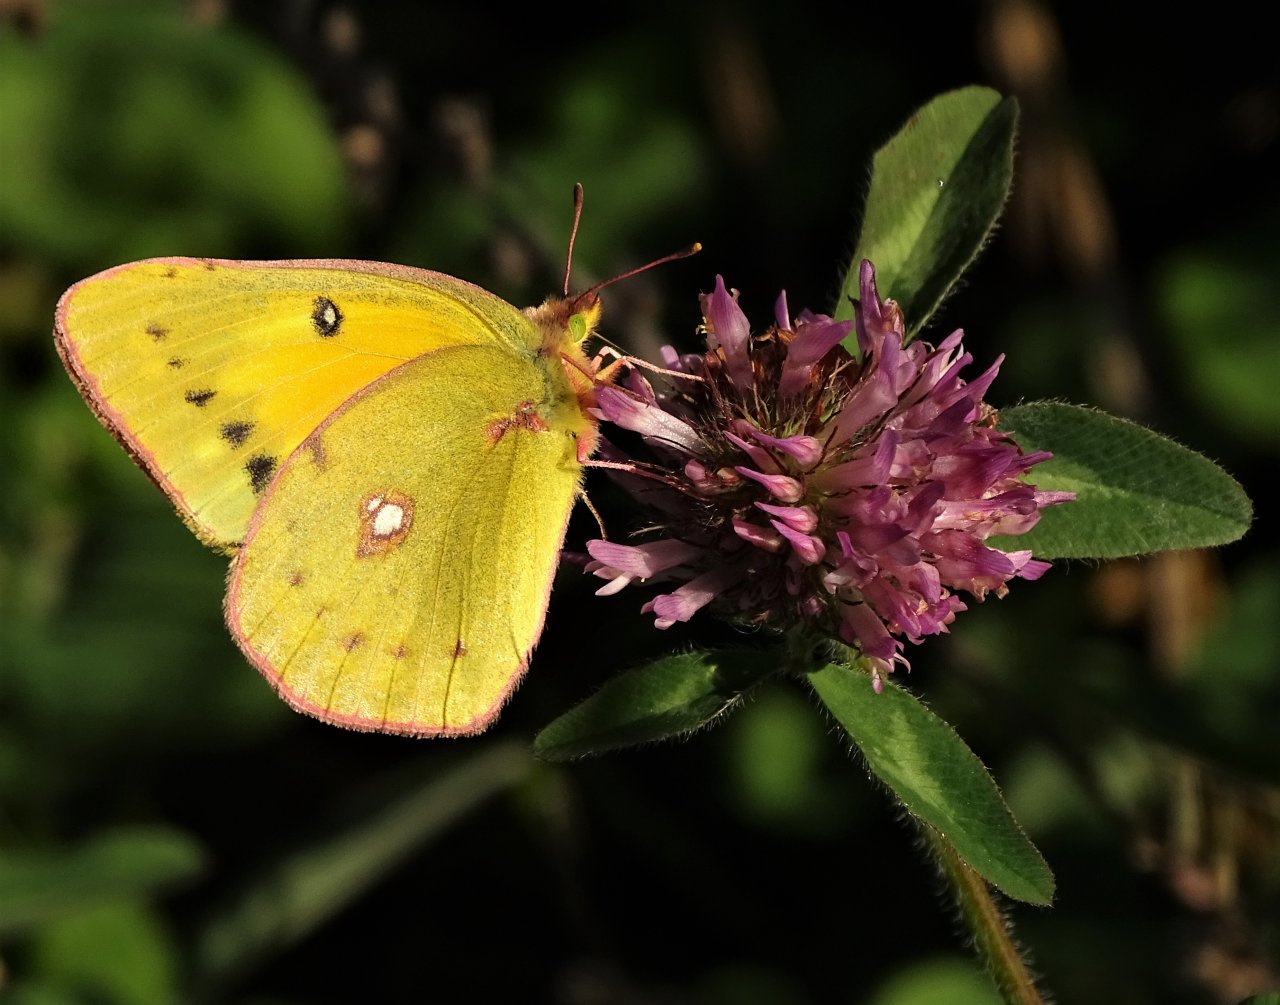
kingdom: Animalia
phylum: Arthropoda
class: Insecta
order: Lepidoptera
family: Pieridae
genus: Colias
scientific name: Colias eurytheme
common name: Orange Sulphur
